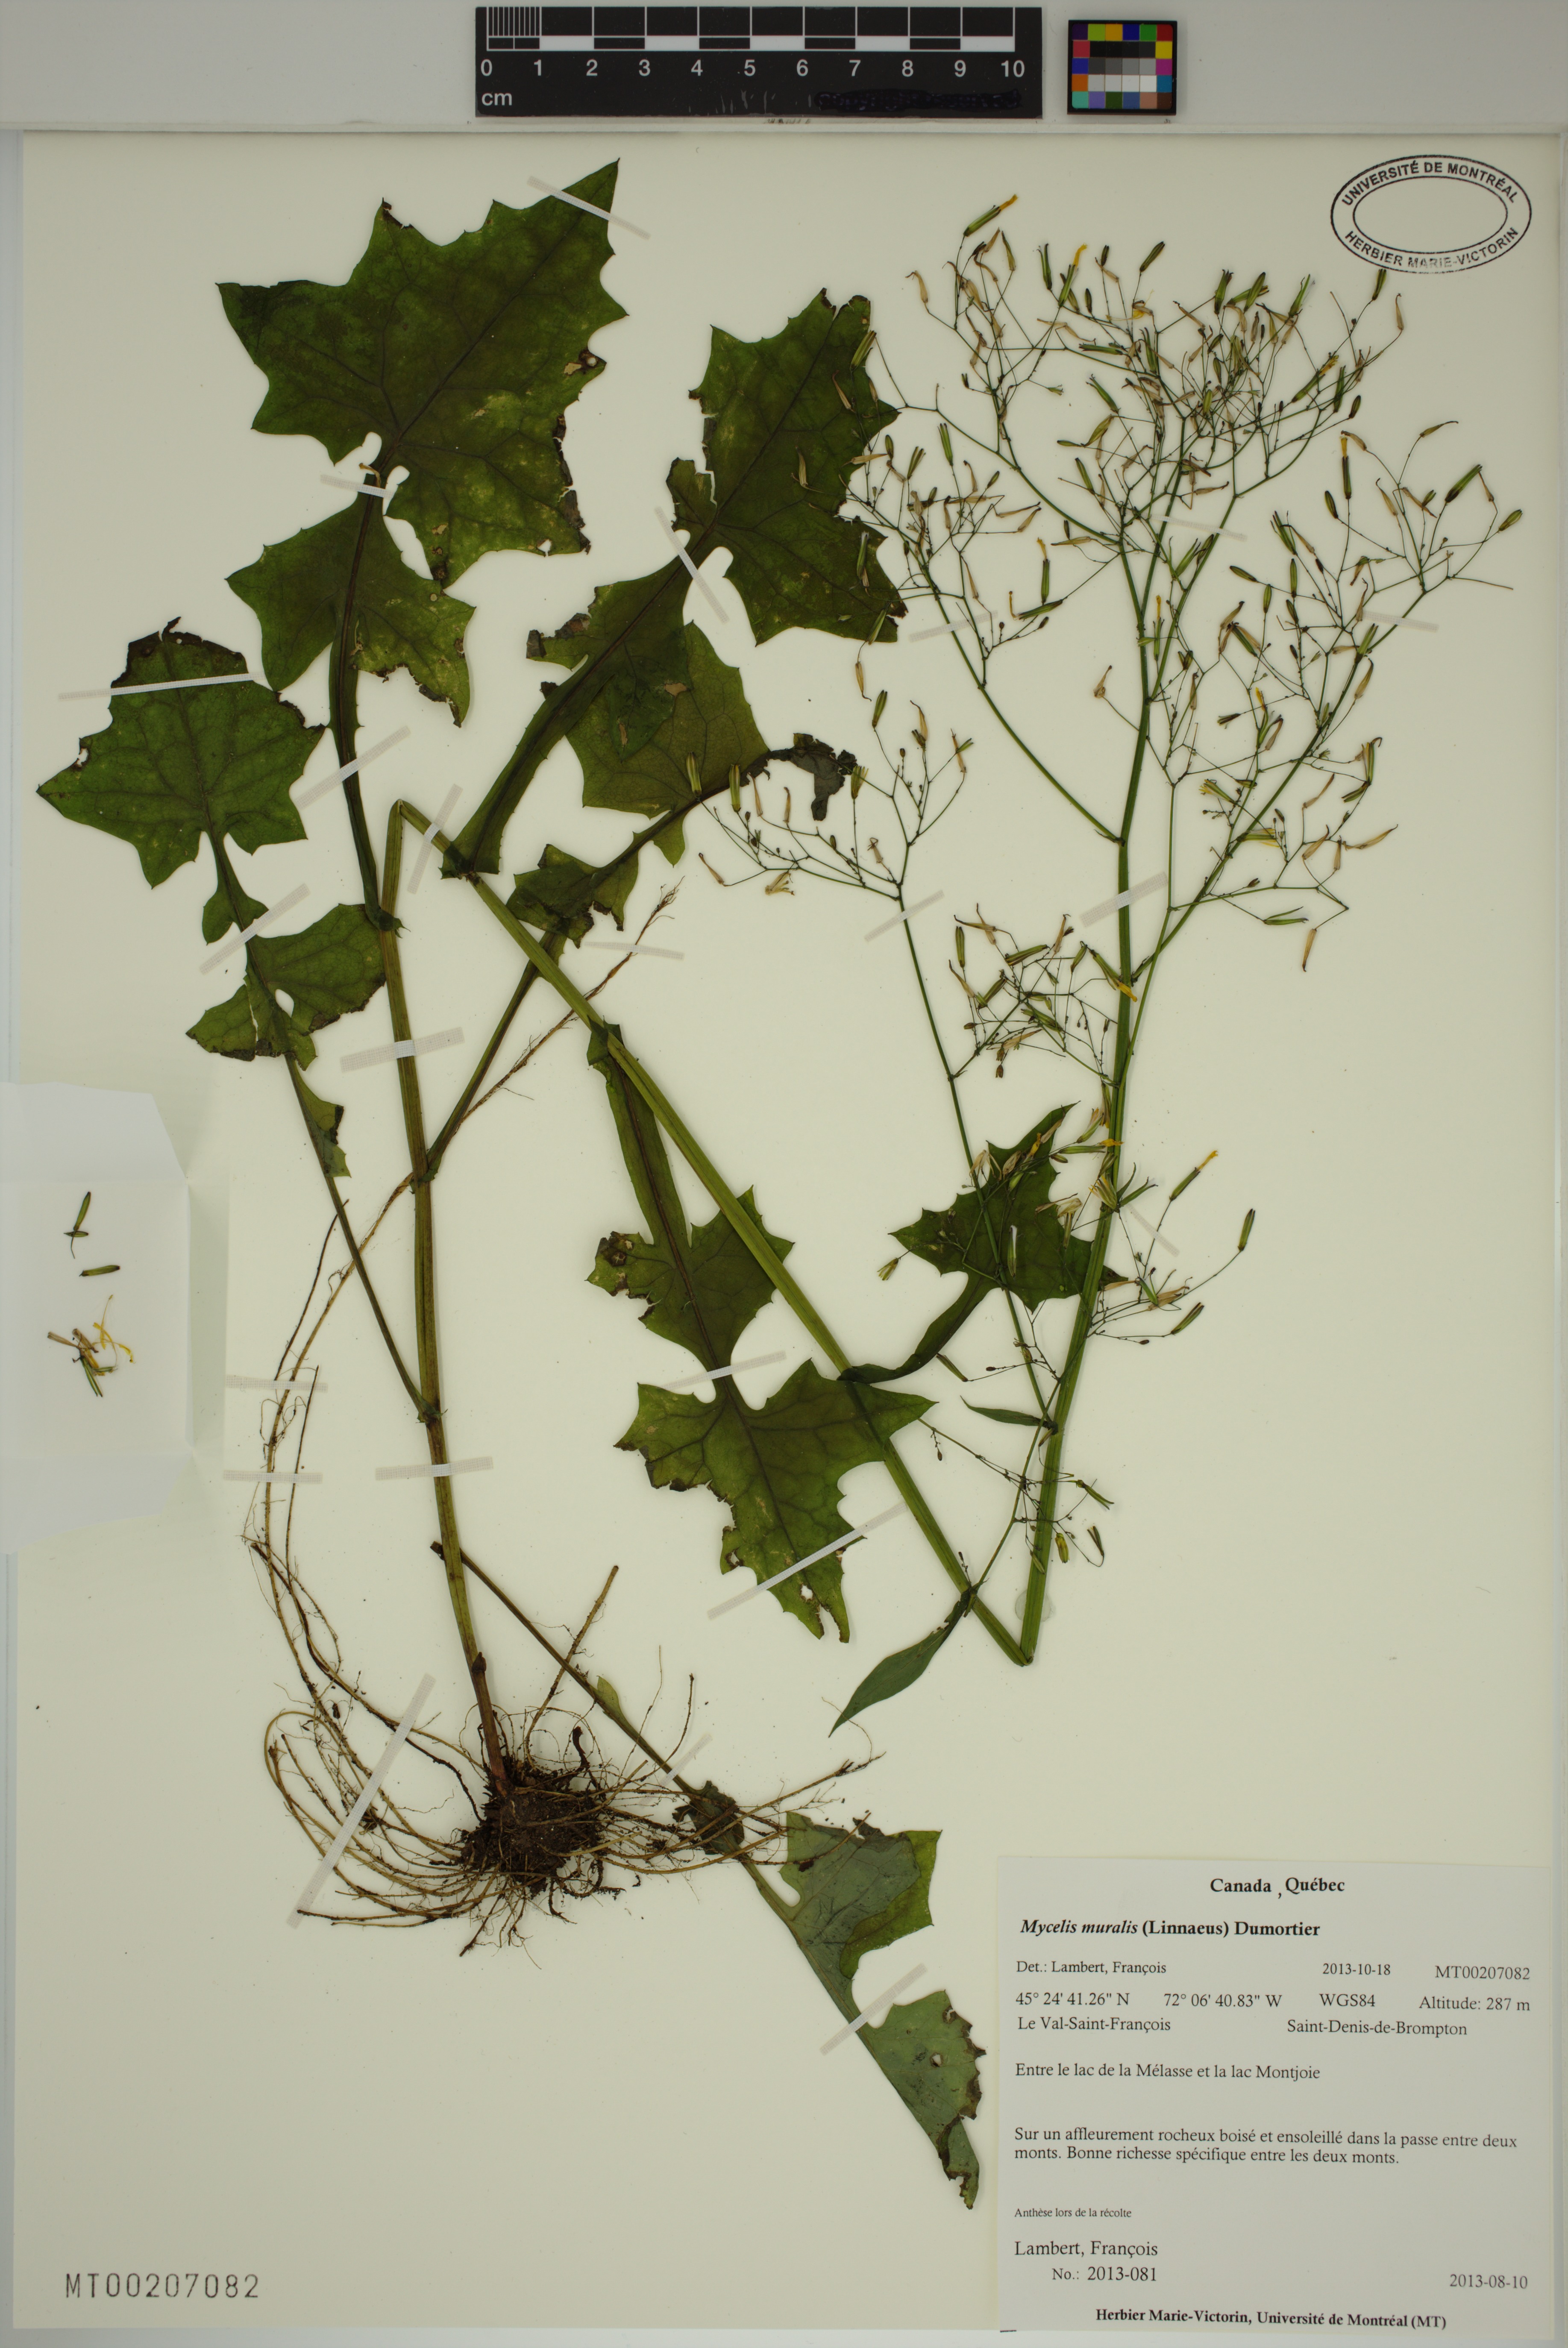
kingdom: Plantae
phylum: Tracheophyta
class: Magnoliopsida
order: Asterales
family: Asteraceae
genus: Mycelis
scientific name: Mycelis muralis
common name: Wall lettuce
